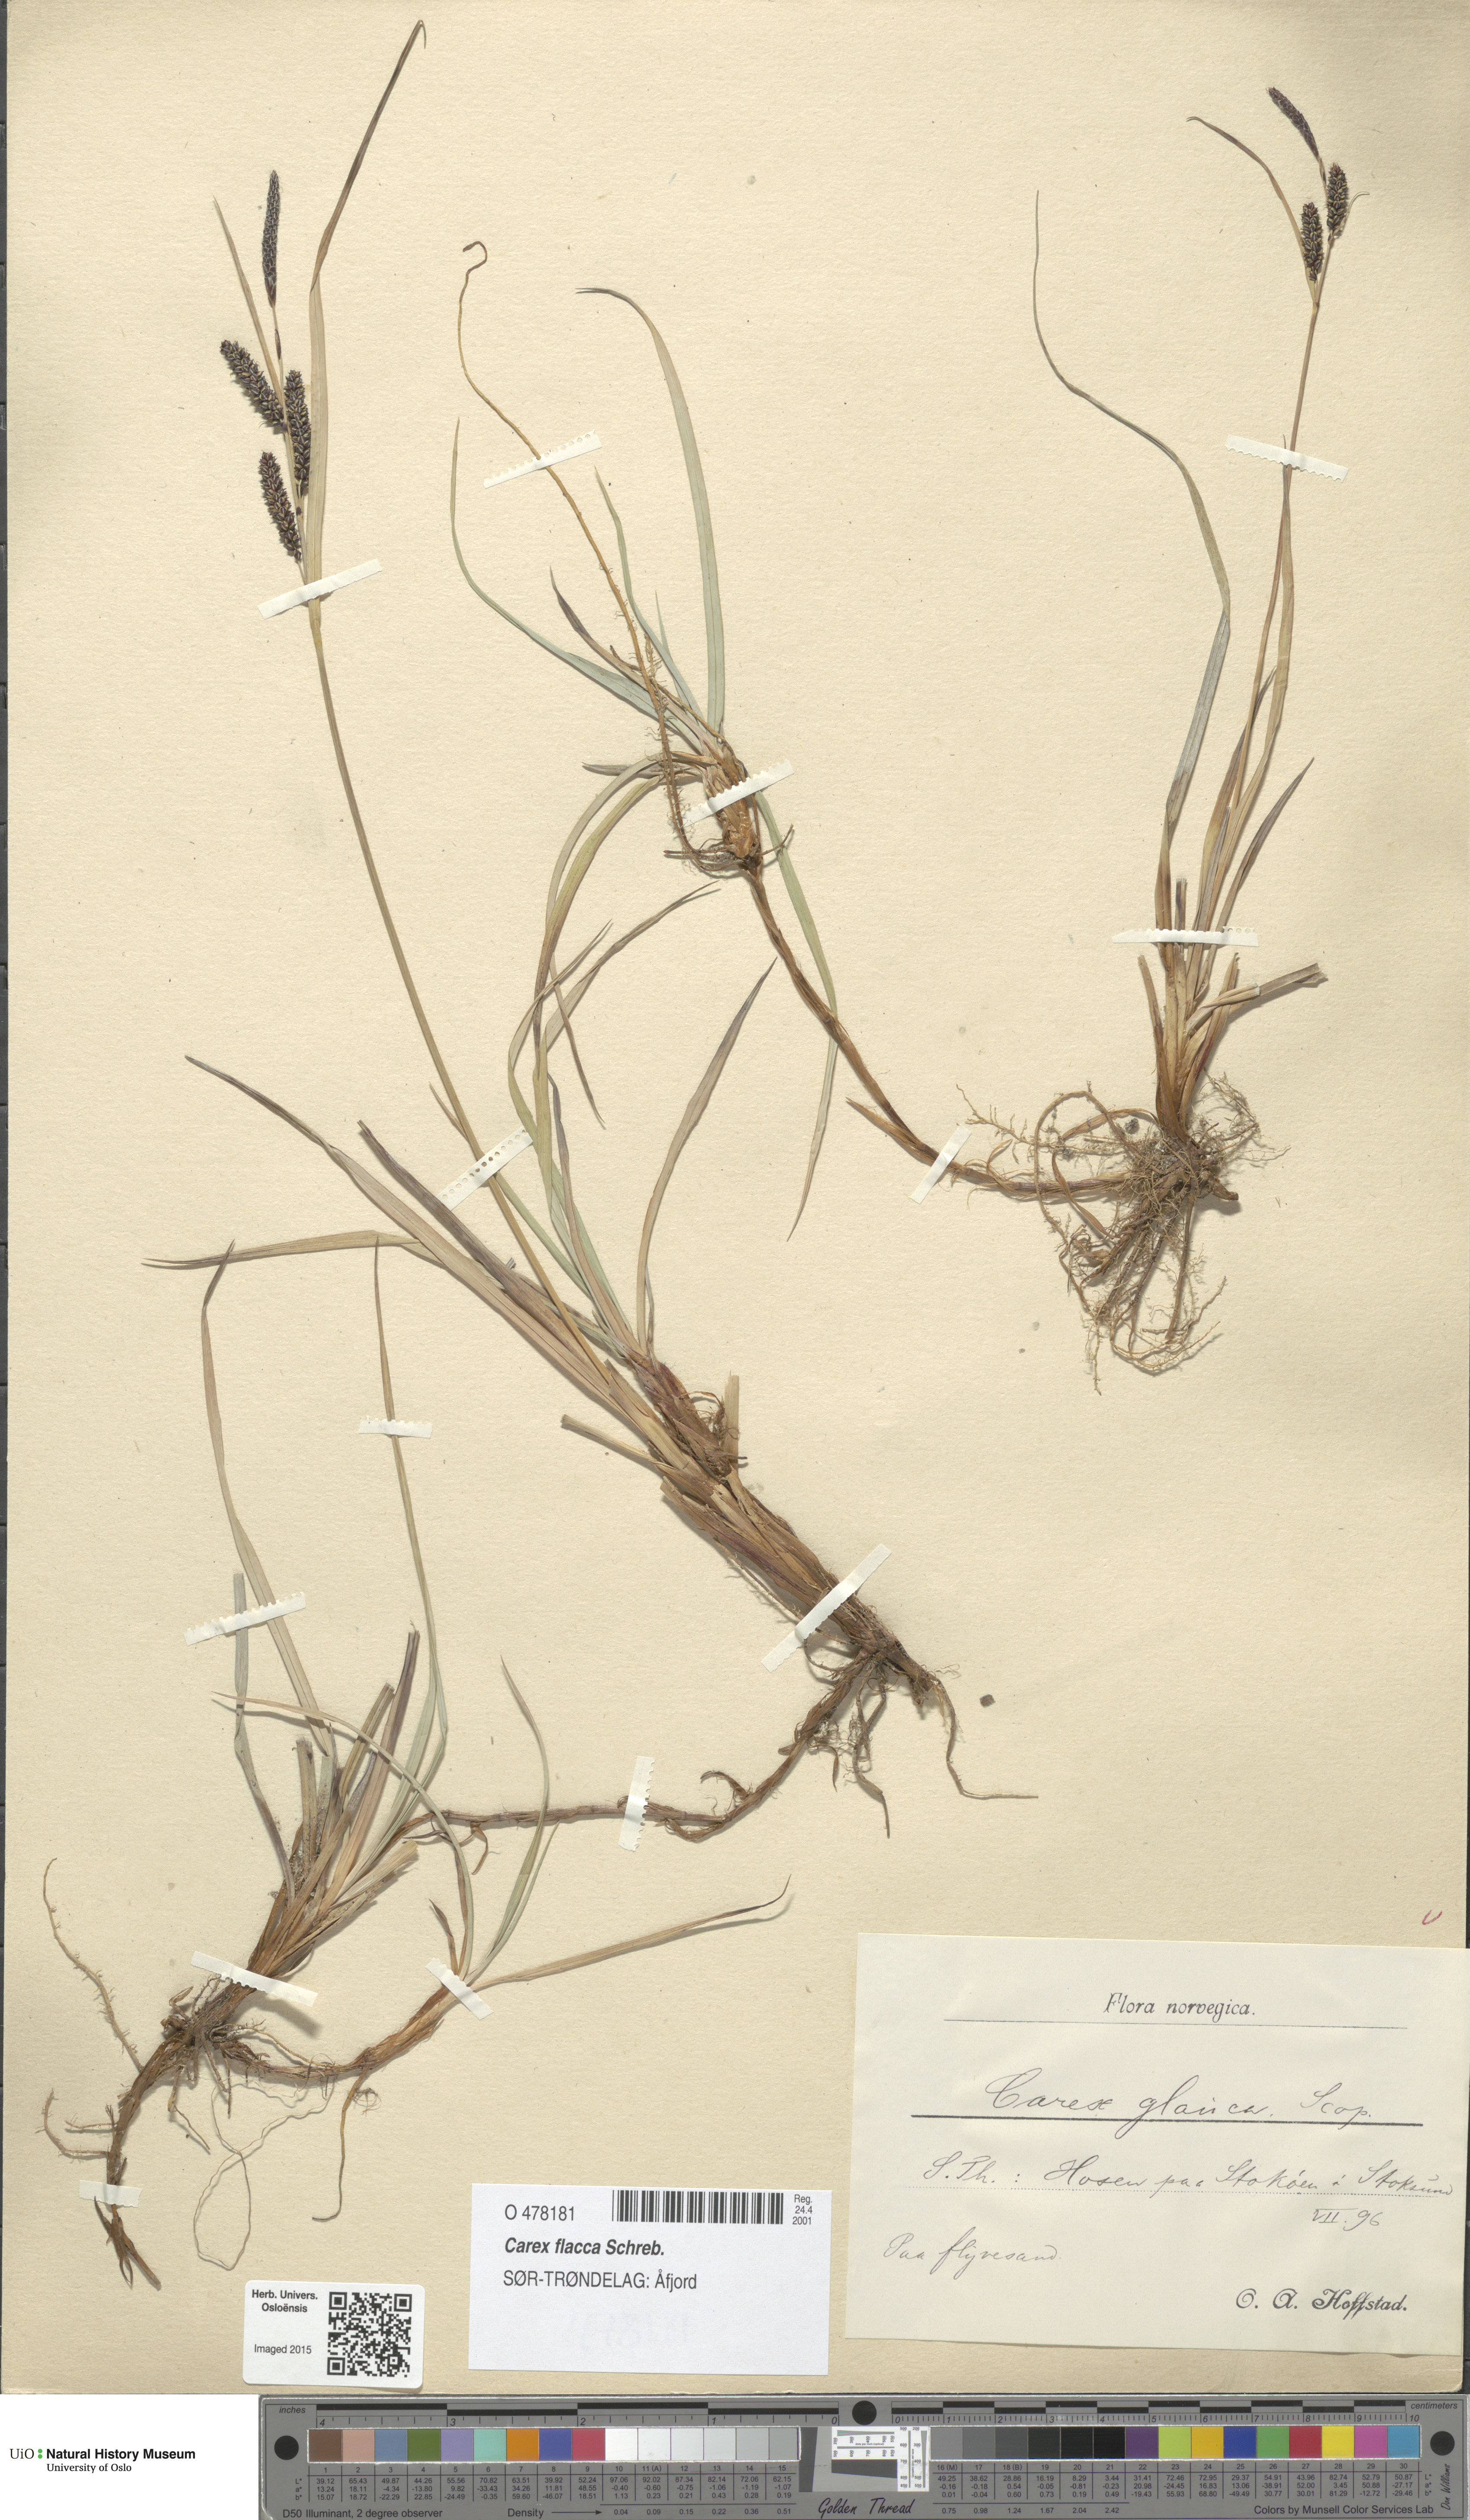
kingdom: Plantae
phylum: Tracheophyta
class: Liliopsida
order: Poales
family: Cyperaceae
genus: Carex
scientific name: Carex flacca
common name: Glaucous sedge
